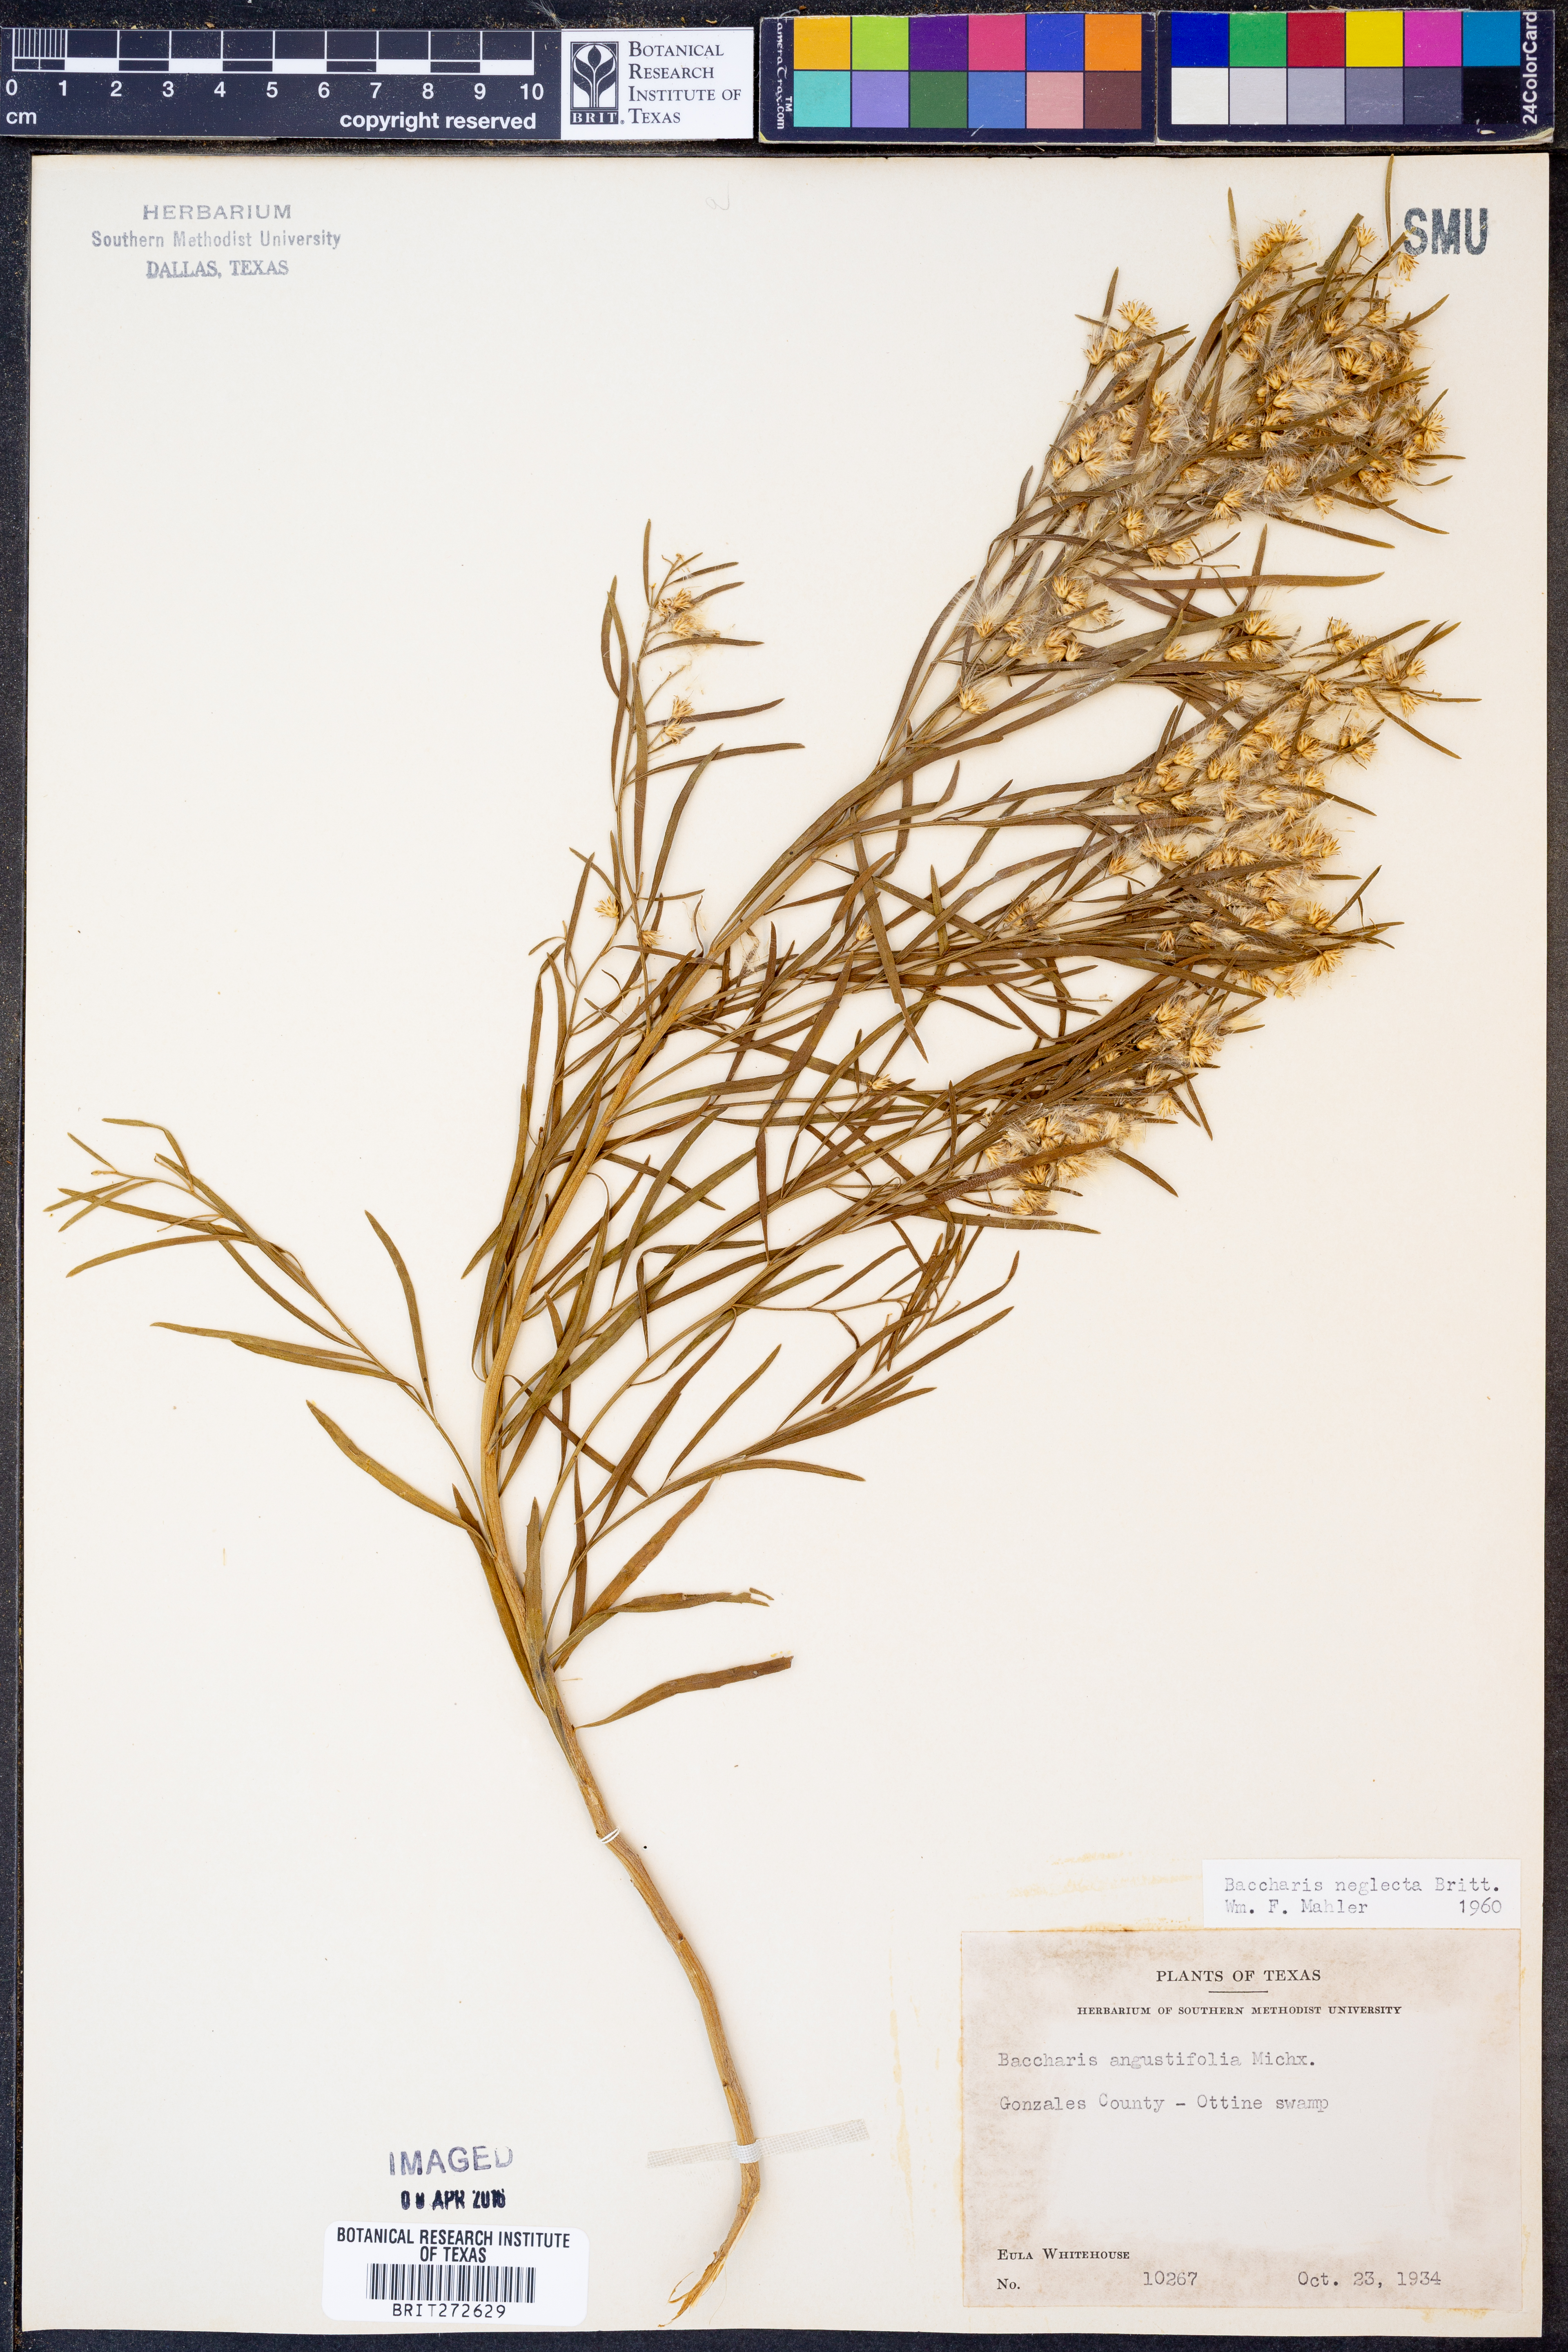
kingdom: Plantae
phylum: Tracheophyta
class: Magnoliopsida
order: Asterales
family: Asteraceae
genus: Baccharis
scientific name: Baccharis neglecta
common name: Roosevelt-weed
